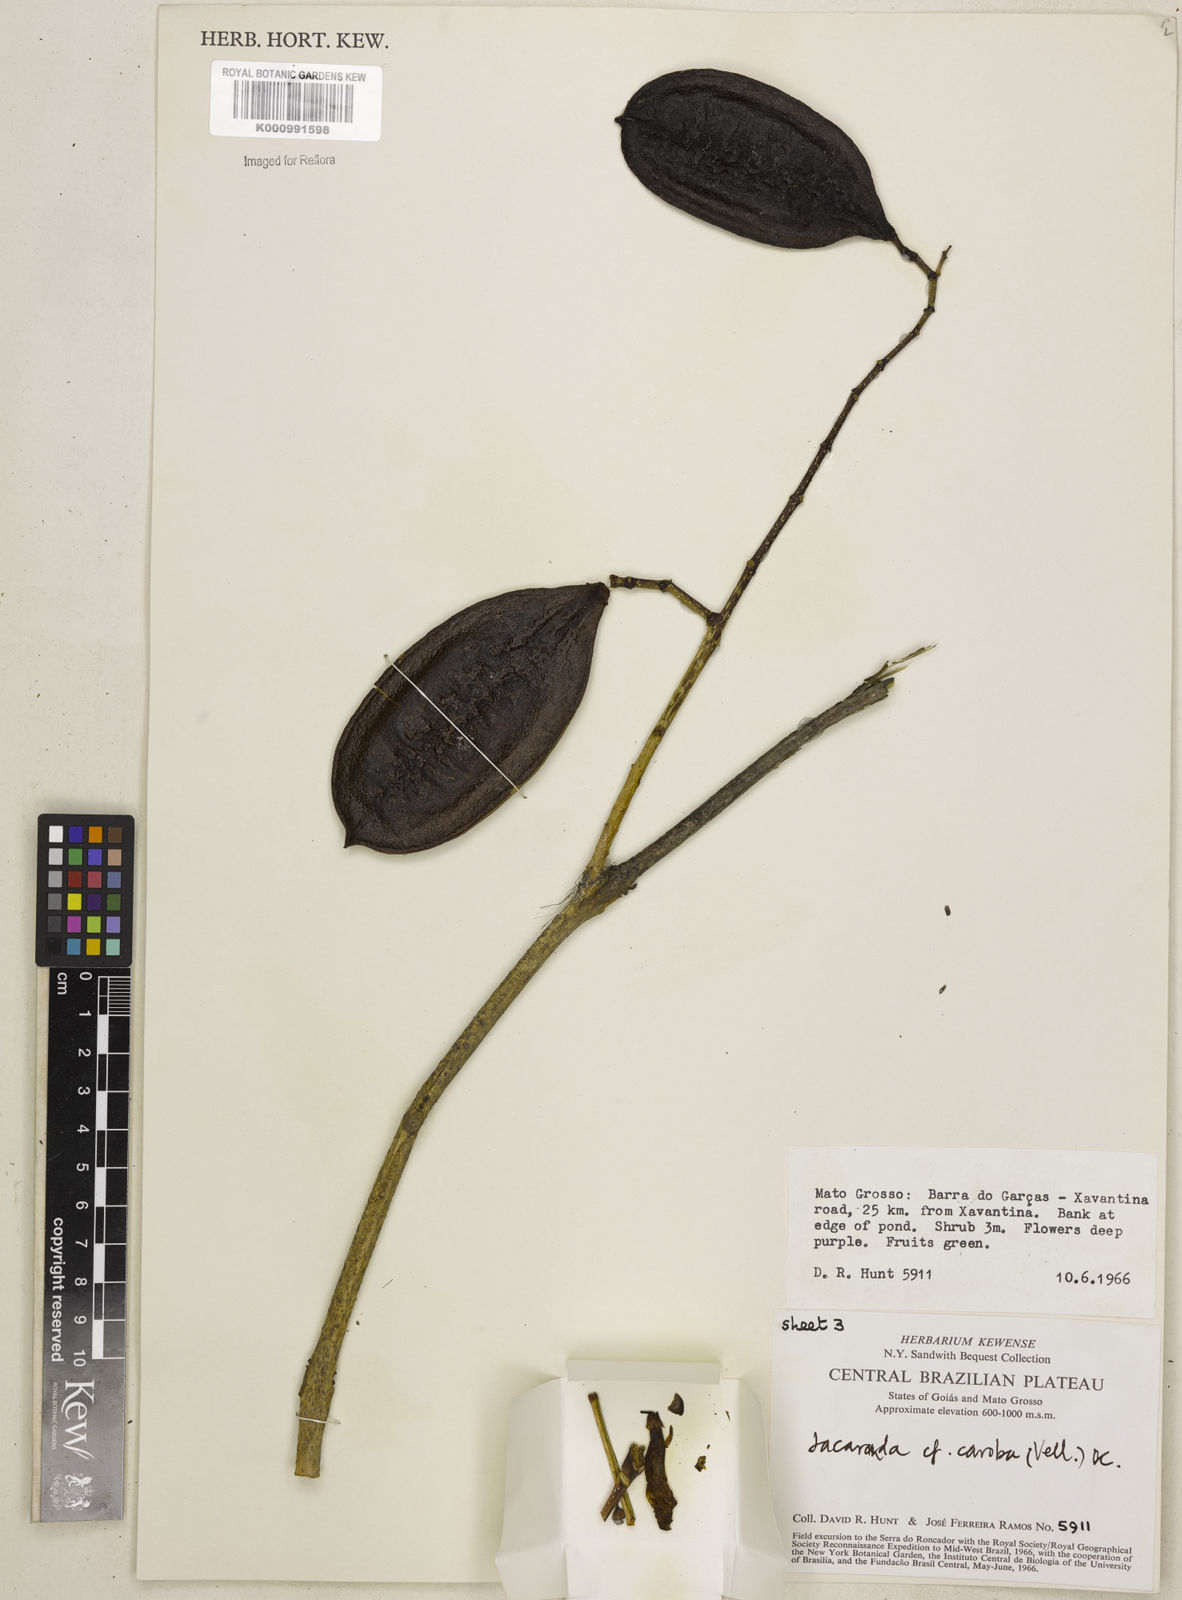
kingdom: Plantae
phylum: Tracheophyta
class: Magnoliopsida
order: Lamiales
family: Bignoniaceae
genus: Jacaranda
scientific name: Jacaranda caroba
